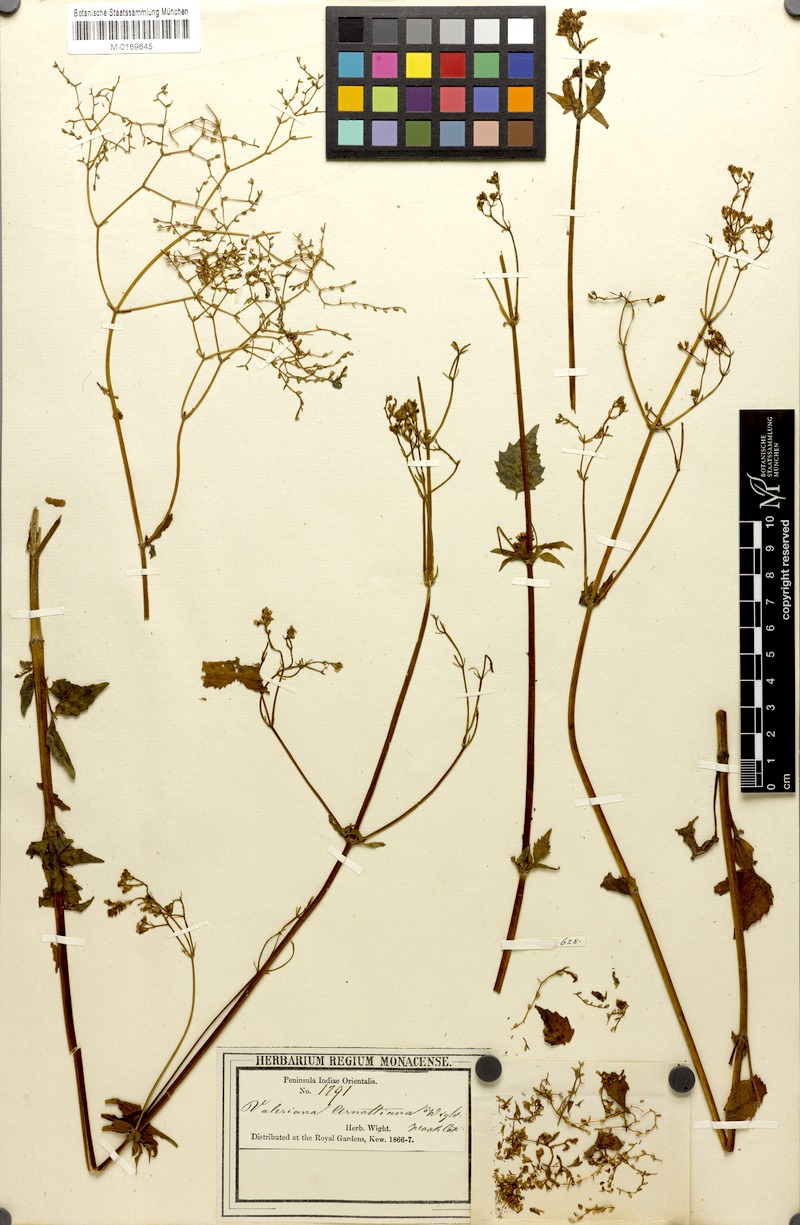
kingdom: Plantae
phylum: Tracheophyta
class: Magnoliopsida
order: Dipsacales
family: Caprifoliaceae
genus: Valeriana
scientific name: Valeriana hardwickei
